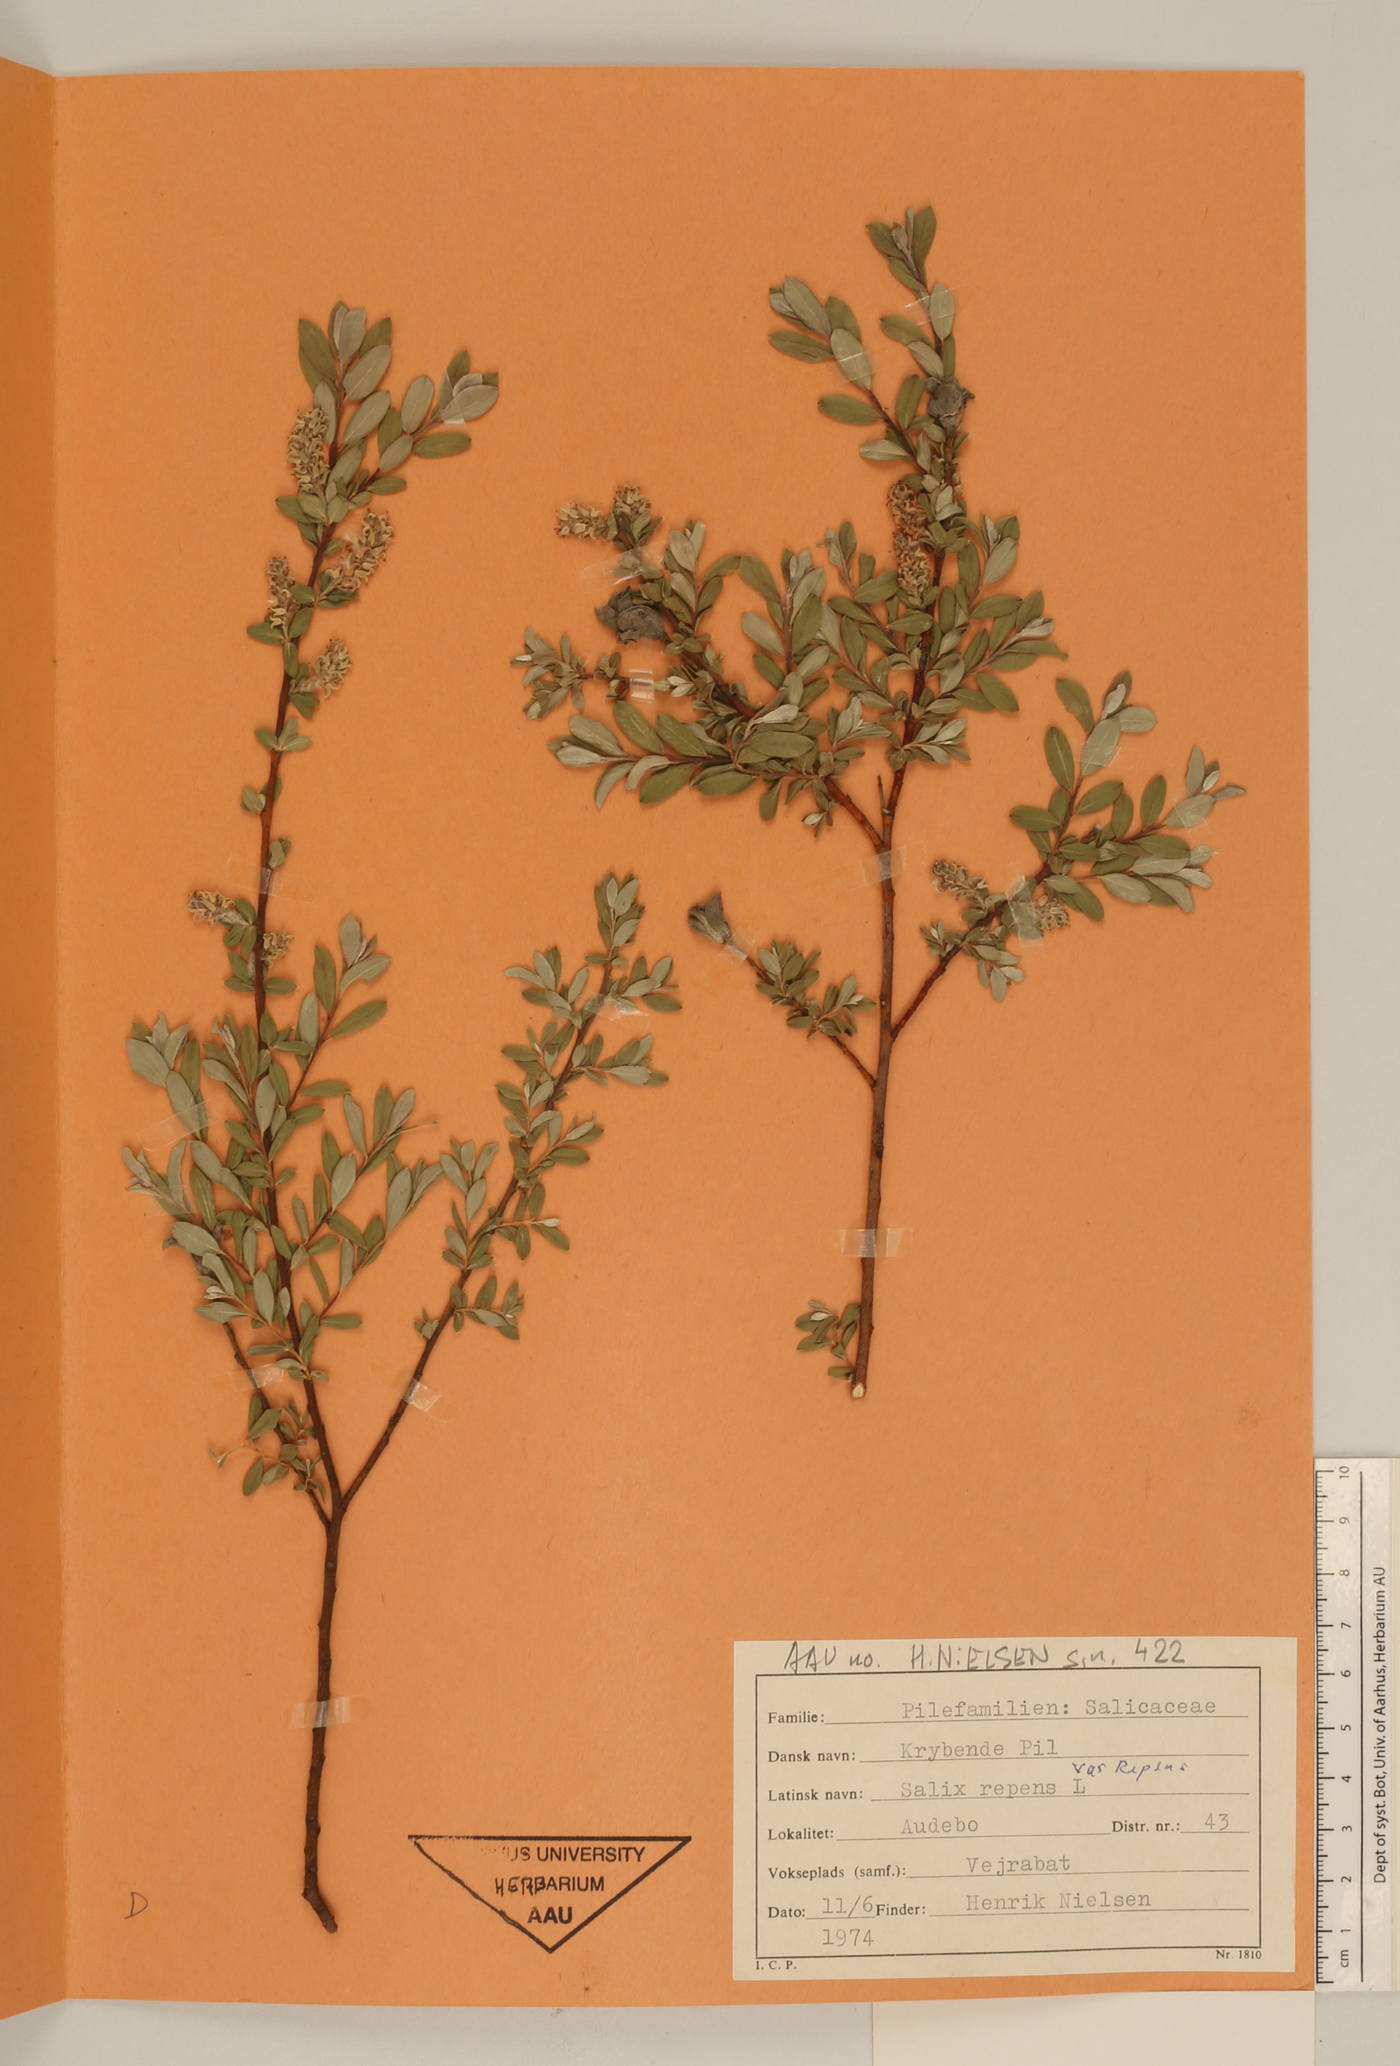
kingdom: Plantae
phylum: Tracheophyta
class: Magnoliopsida
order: Malpighiales
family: Salicaceae
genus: Salix
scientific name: Salix repens
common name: Creeping willow
